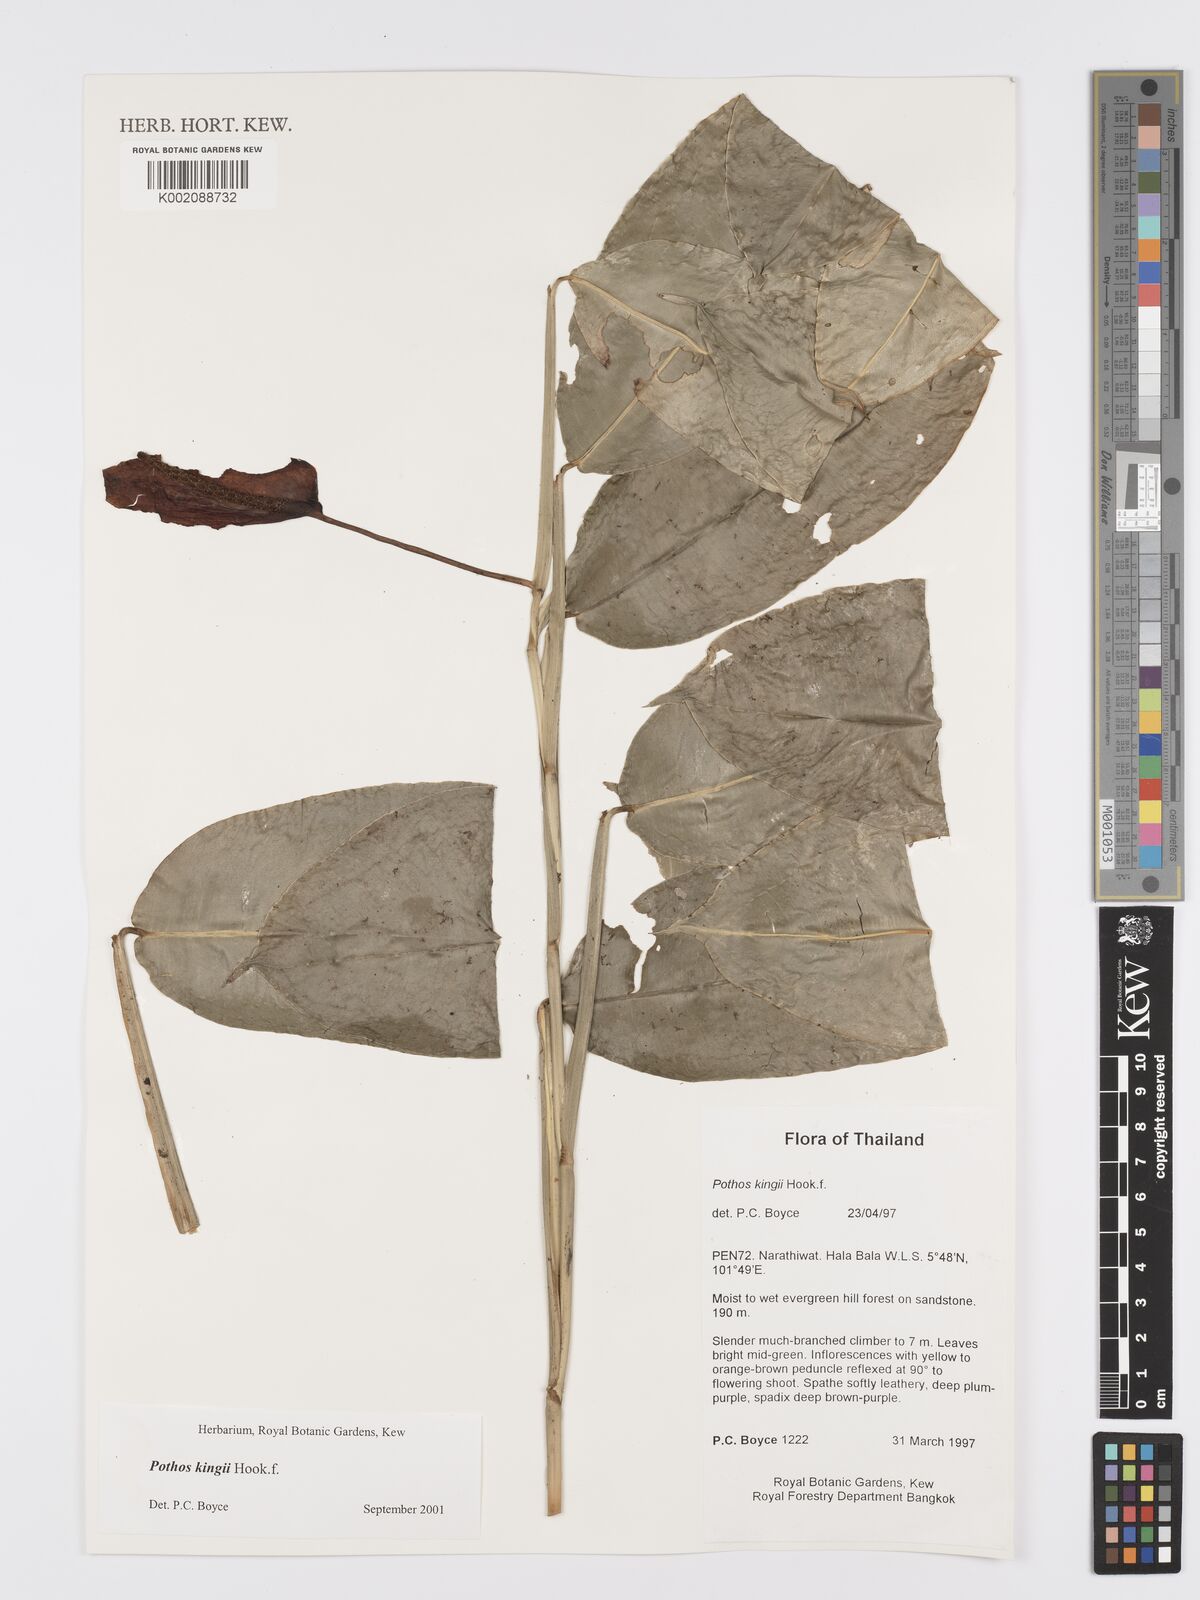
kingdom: Plantae
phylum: Tracheophyta
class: Liliopsida
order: Alismatales
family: Araceae
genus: Pothos
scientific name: Pothos kingii
